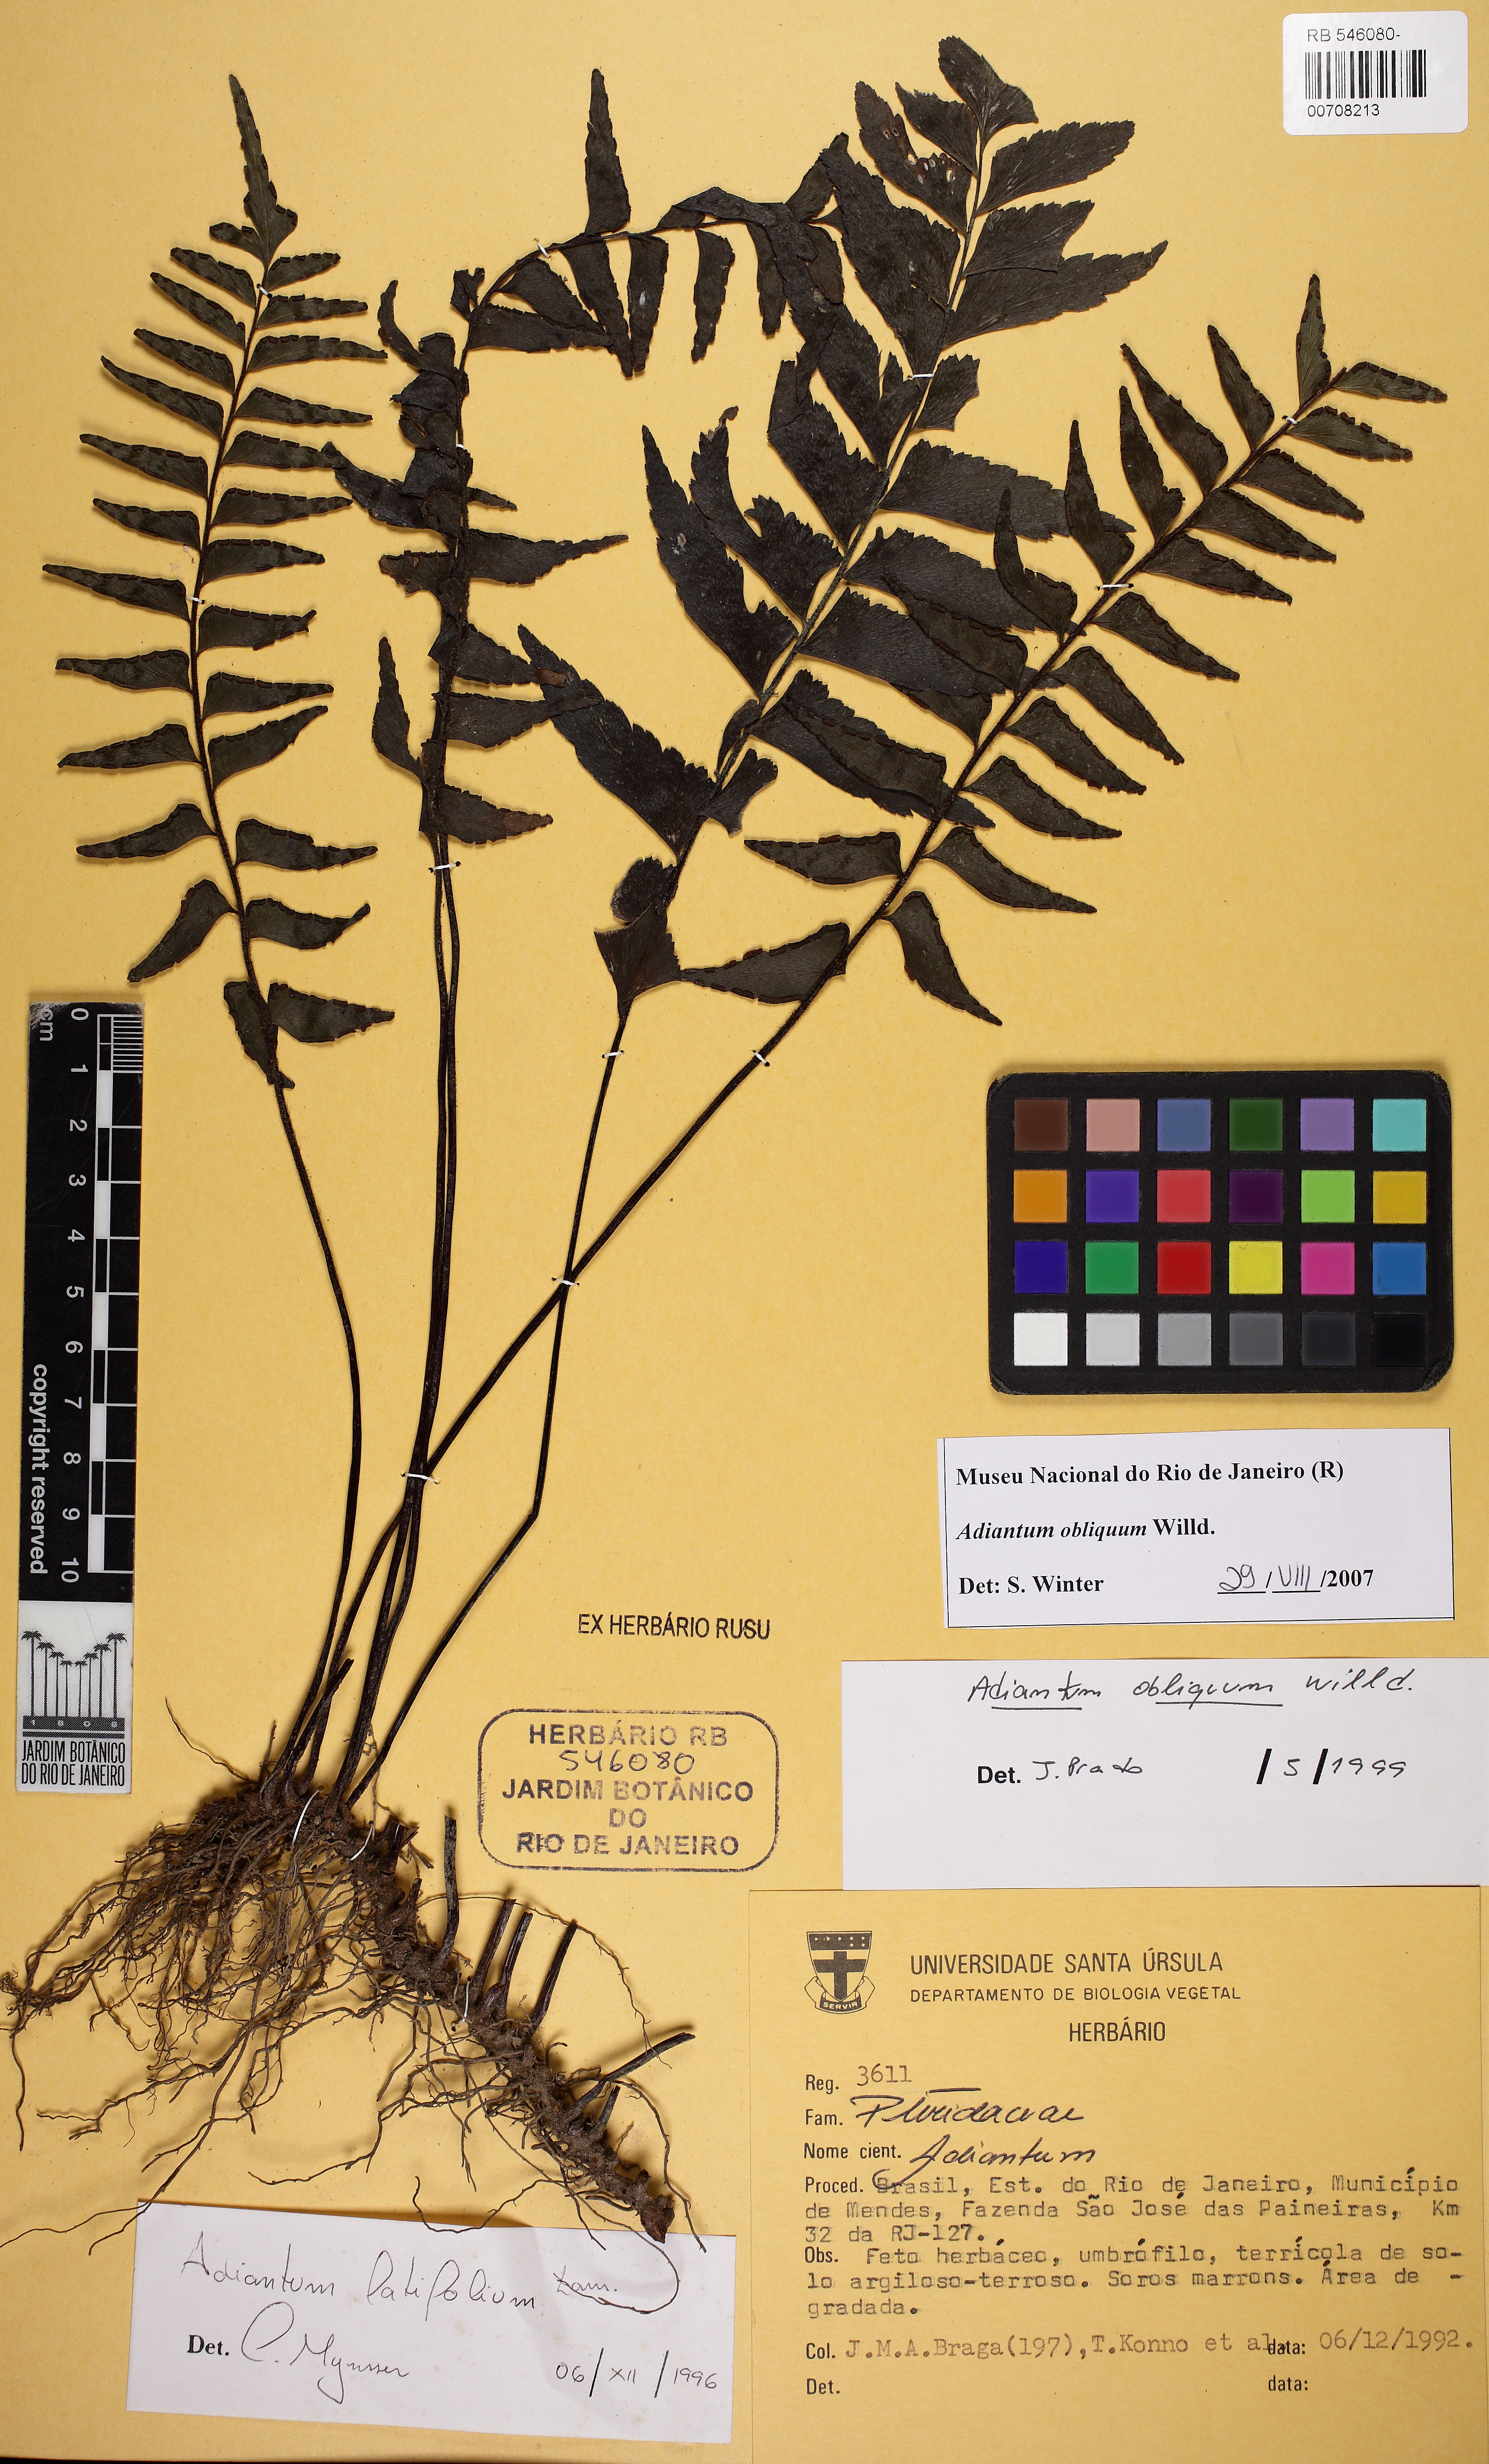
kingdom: Plantae
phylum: Tracheophyta
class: Polypodiopsida
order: Polypodiales
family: Pteridaceae
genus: Adiantum
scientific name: Adiantum obliquum
